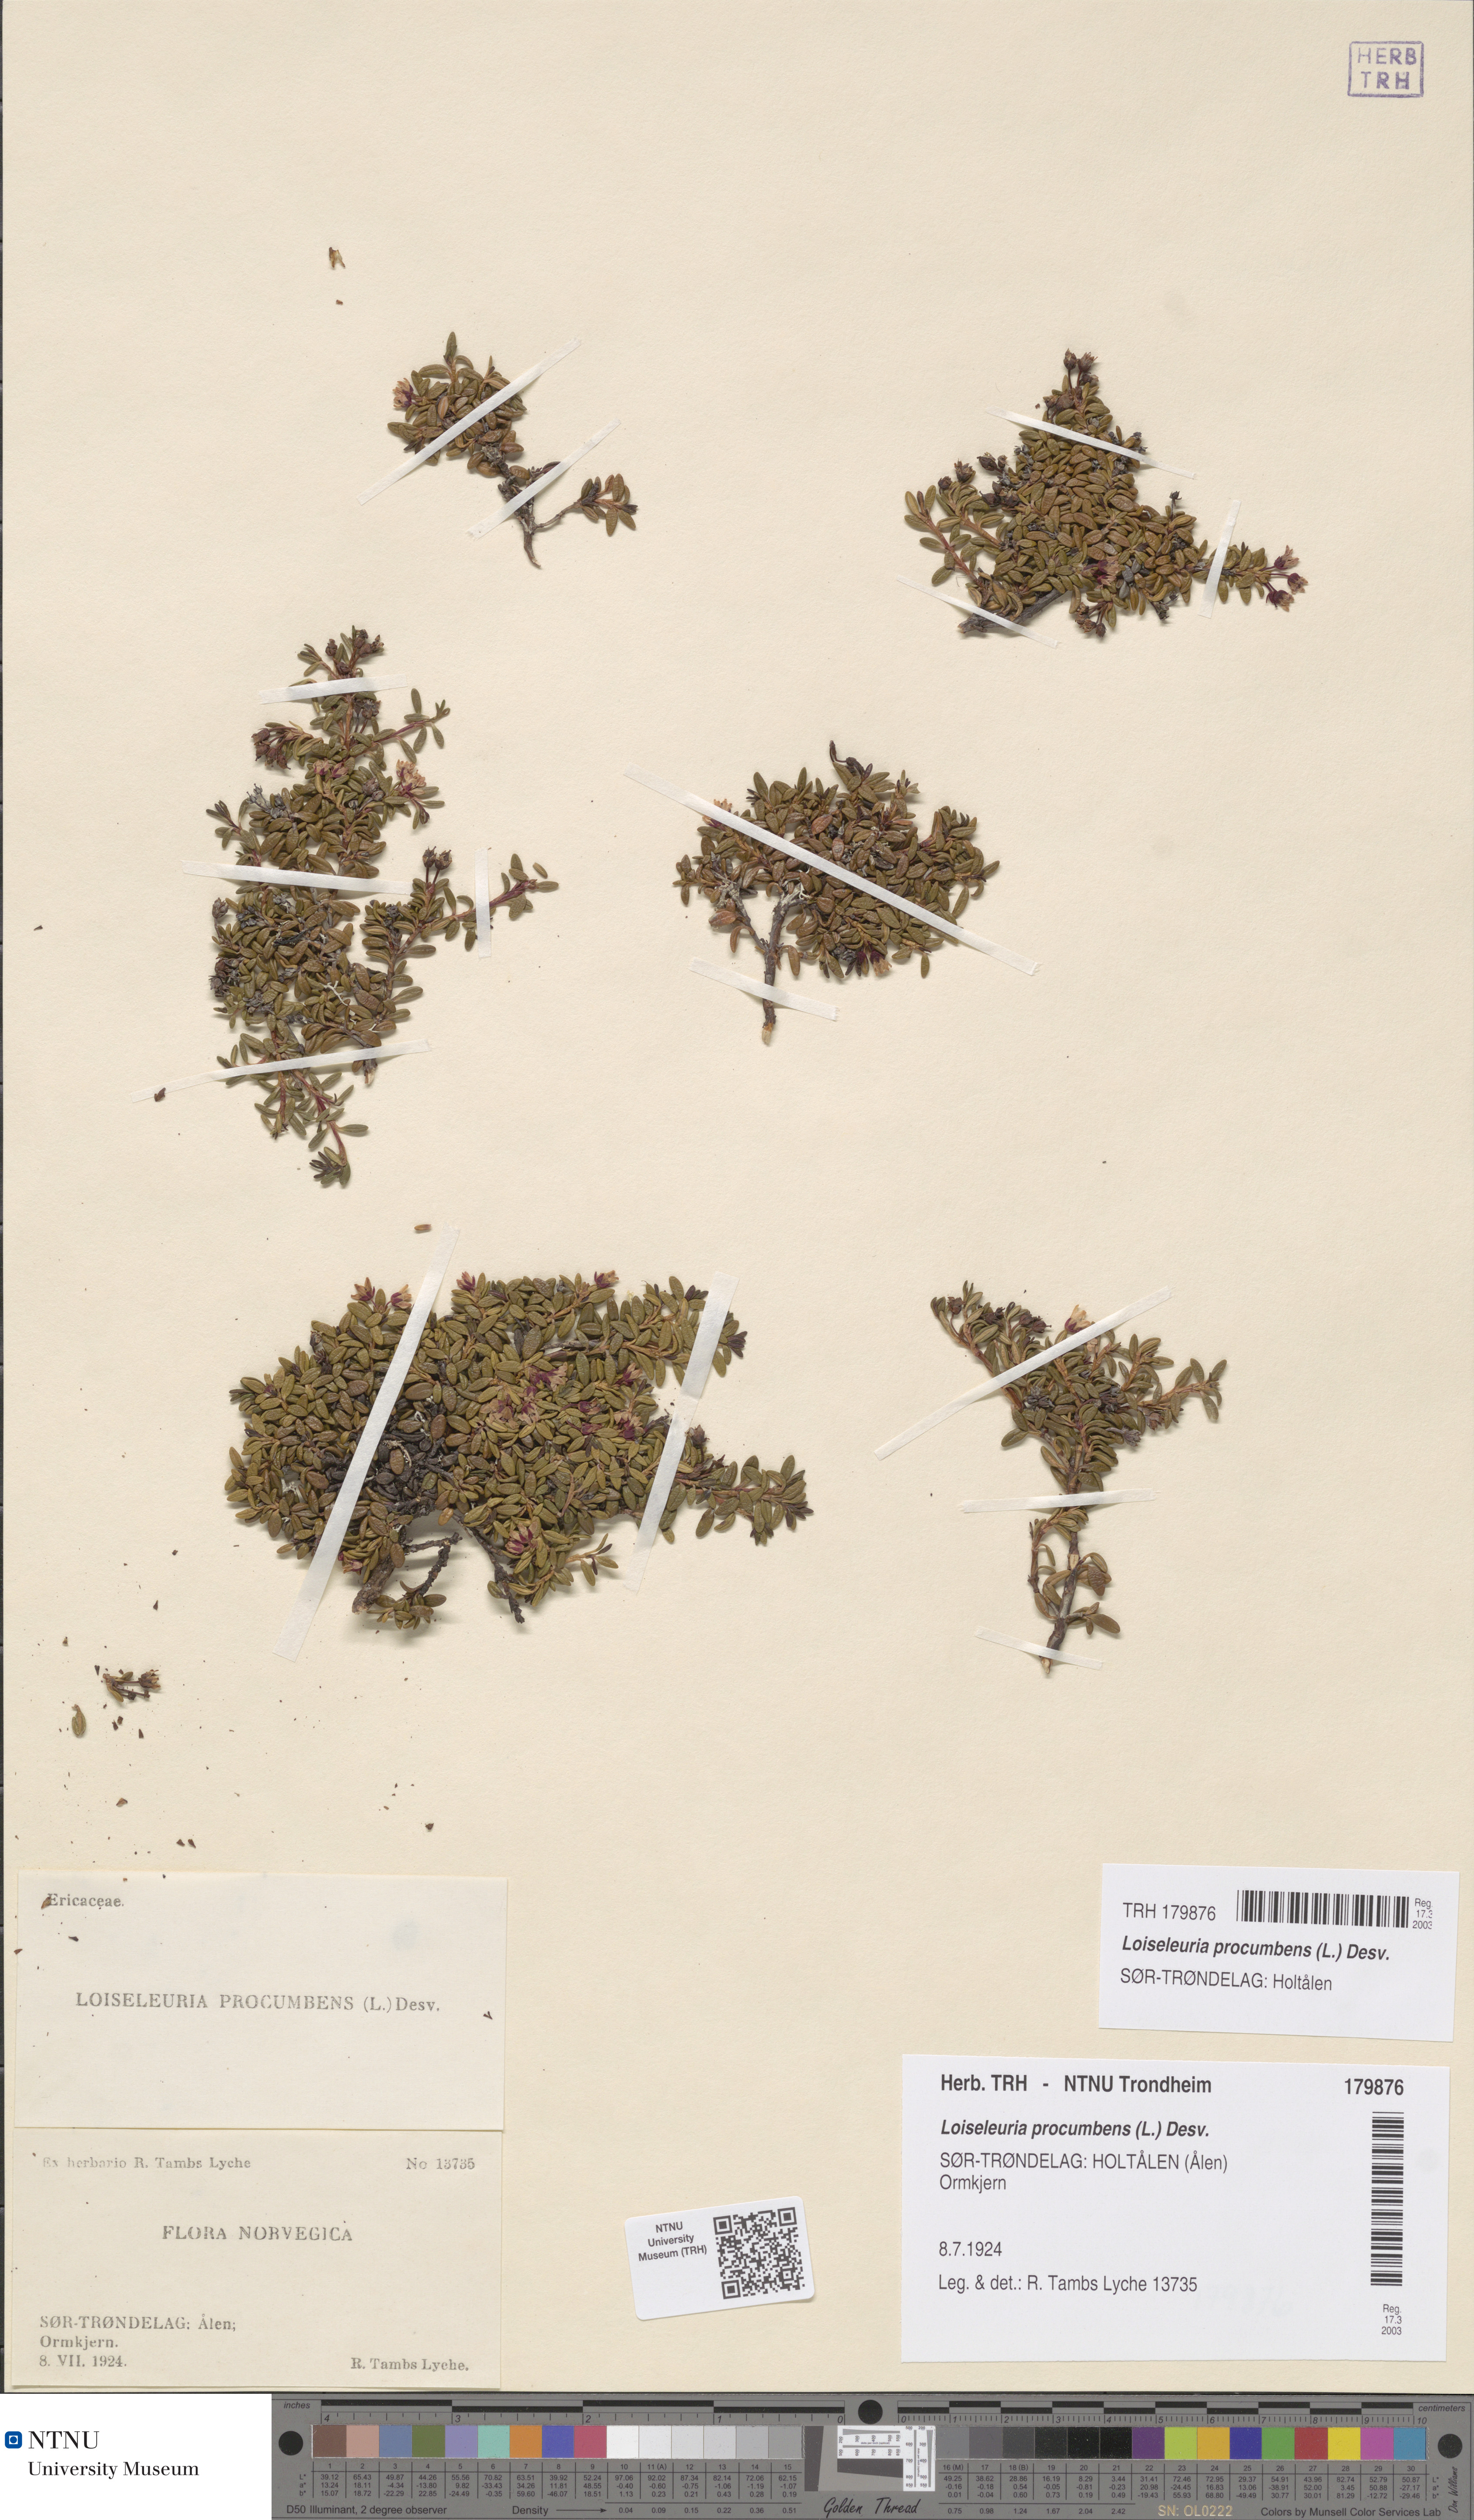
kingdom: Plantae
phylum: Tracheophyta
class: Magnoliopsida
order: Ericales
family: Ericaceae
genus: Kalmia
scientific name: Kalmia procumbens
